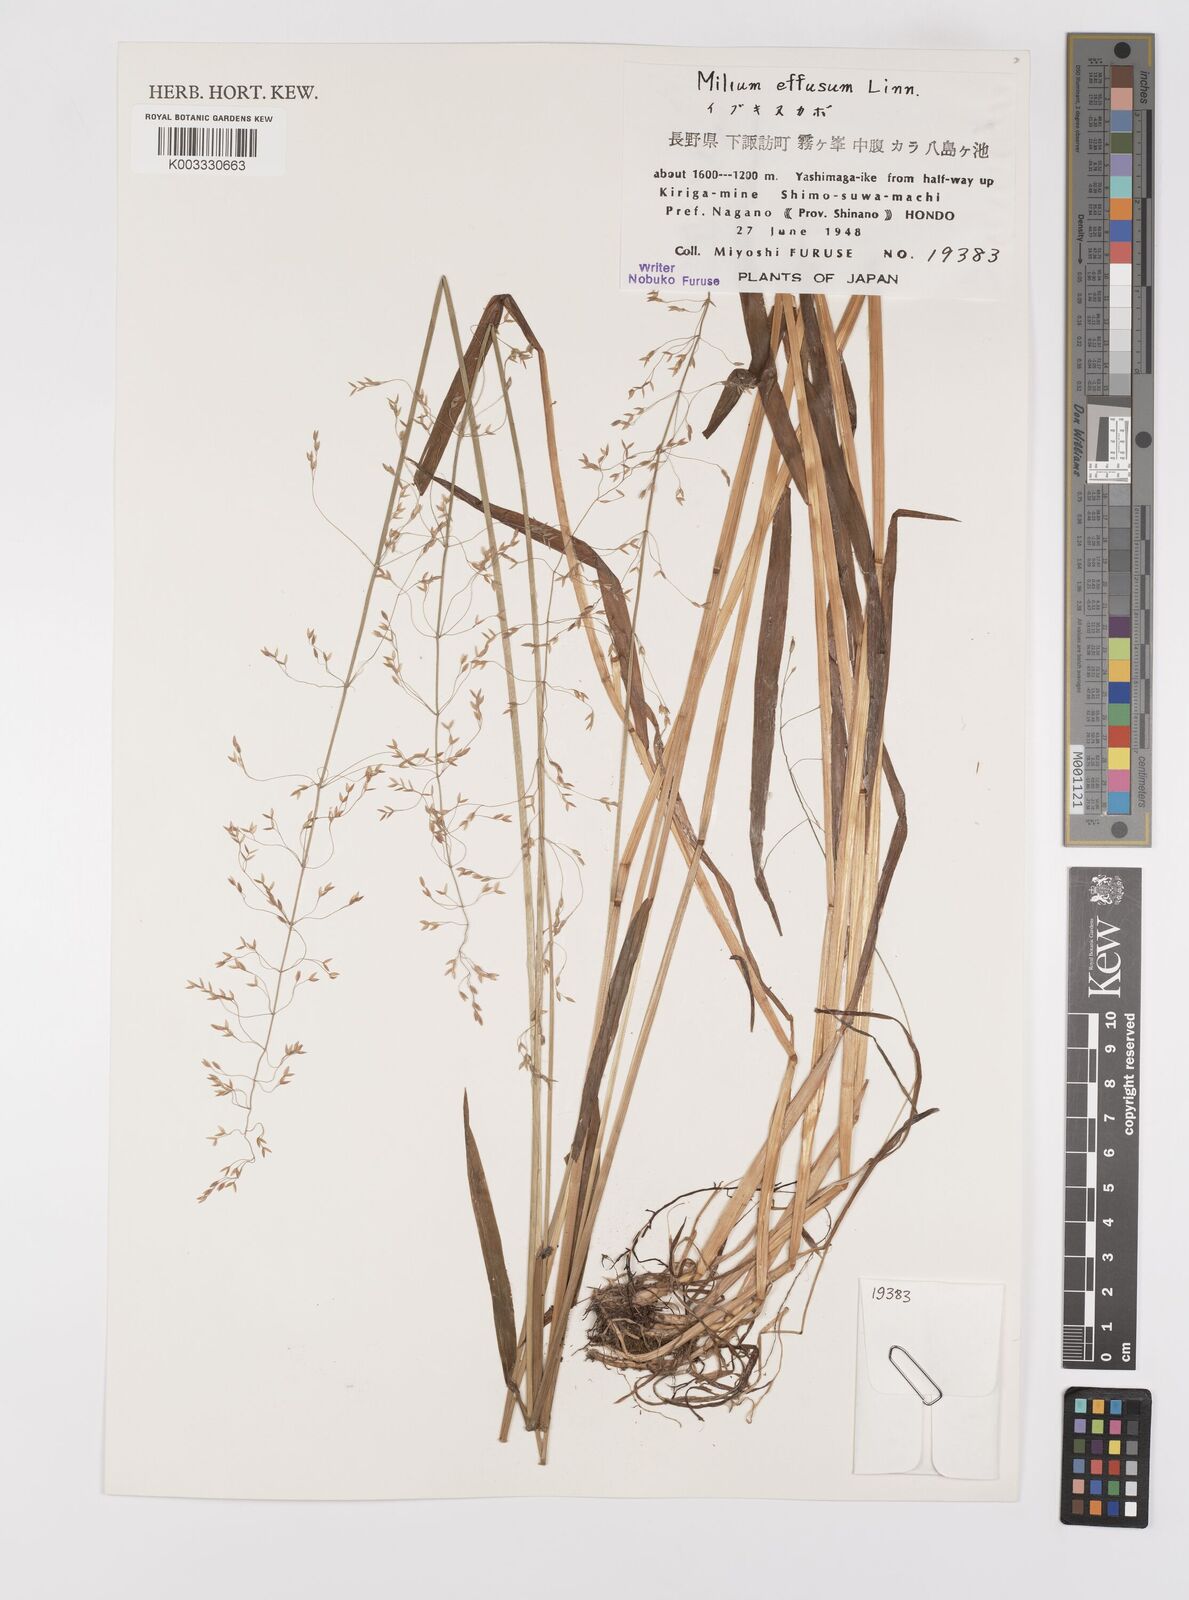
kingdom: Plantae
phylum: Tracheophyta
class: Liliopsida
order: Poales
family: Poaceae
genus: Milium
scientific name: Milium effusum
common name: Wood millet
